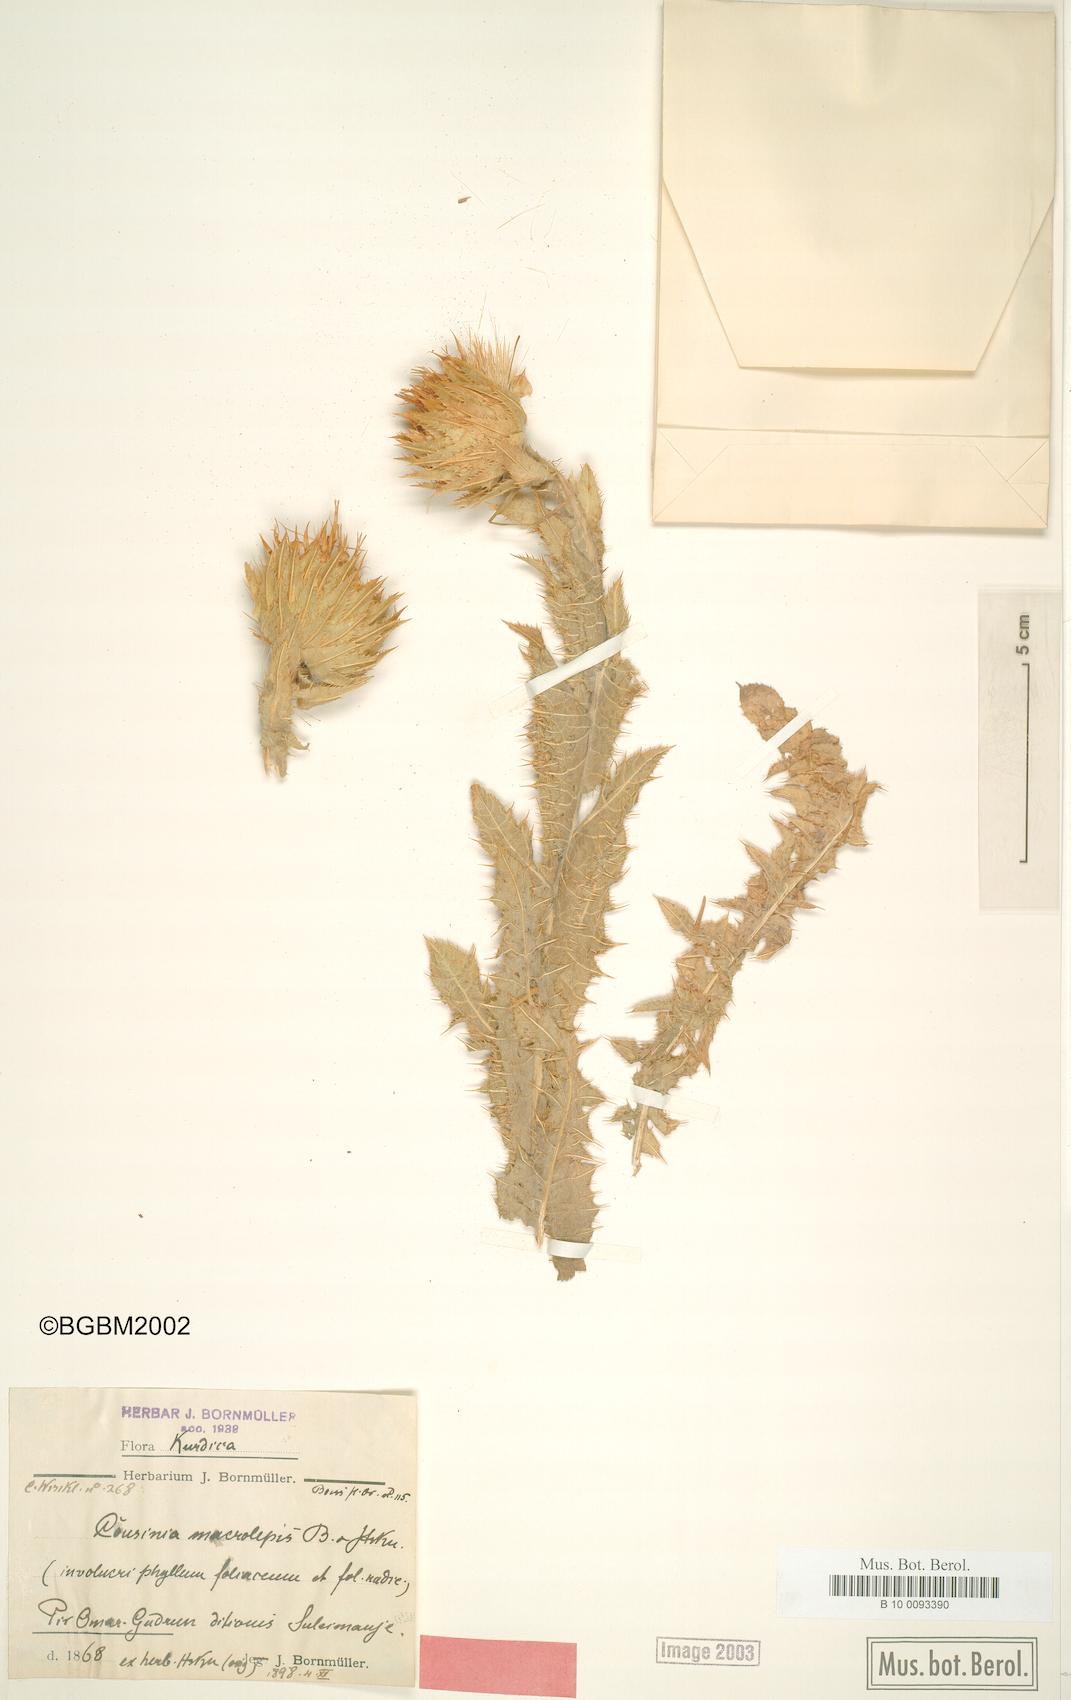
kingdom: Plantae
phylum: Tracheophyta
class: Magnoliopsida
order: Asterales
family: Asteraceae
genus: Cousinia
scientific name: Cousinia macrolepis
